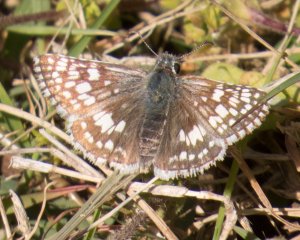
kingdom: Animalia
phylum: Arthropoda
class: Insecta
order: Lepidoptera
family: Hesperiidae
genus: Pyrgus
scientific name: Pyrgus communis
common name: Common Checkered-Skipper
